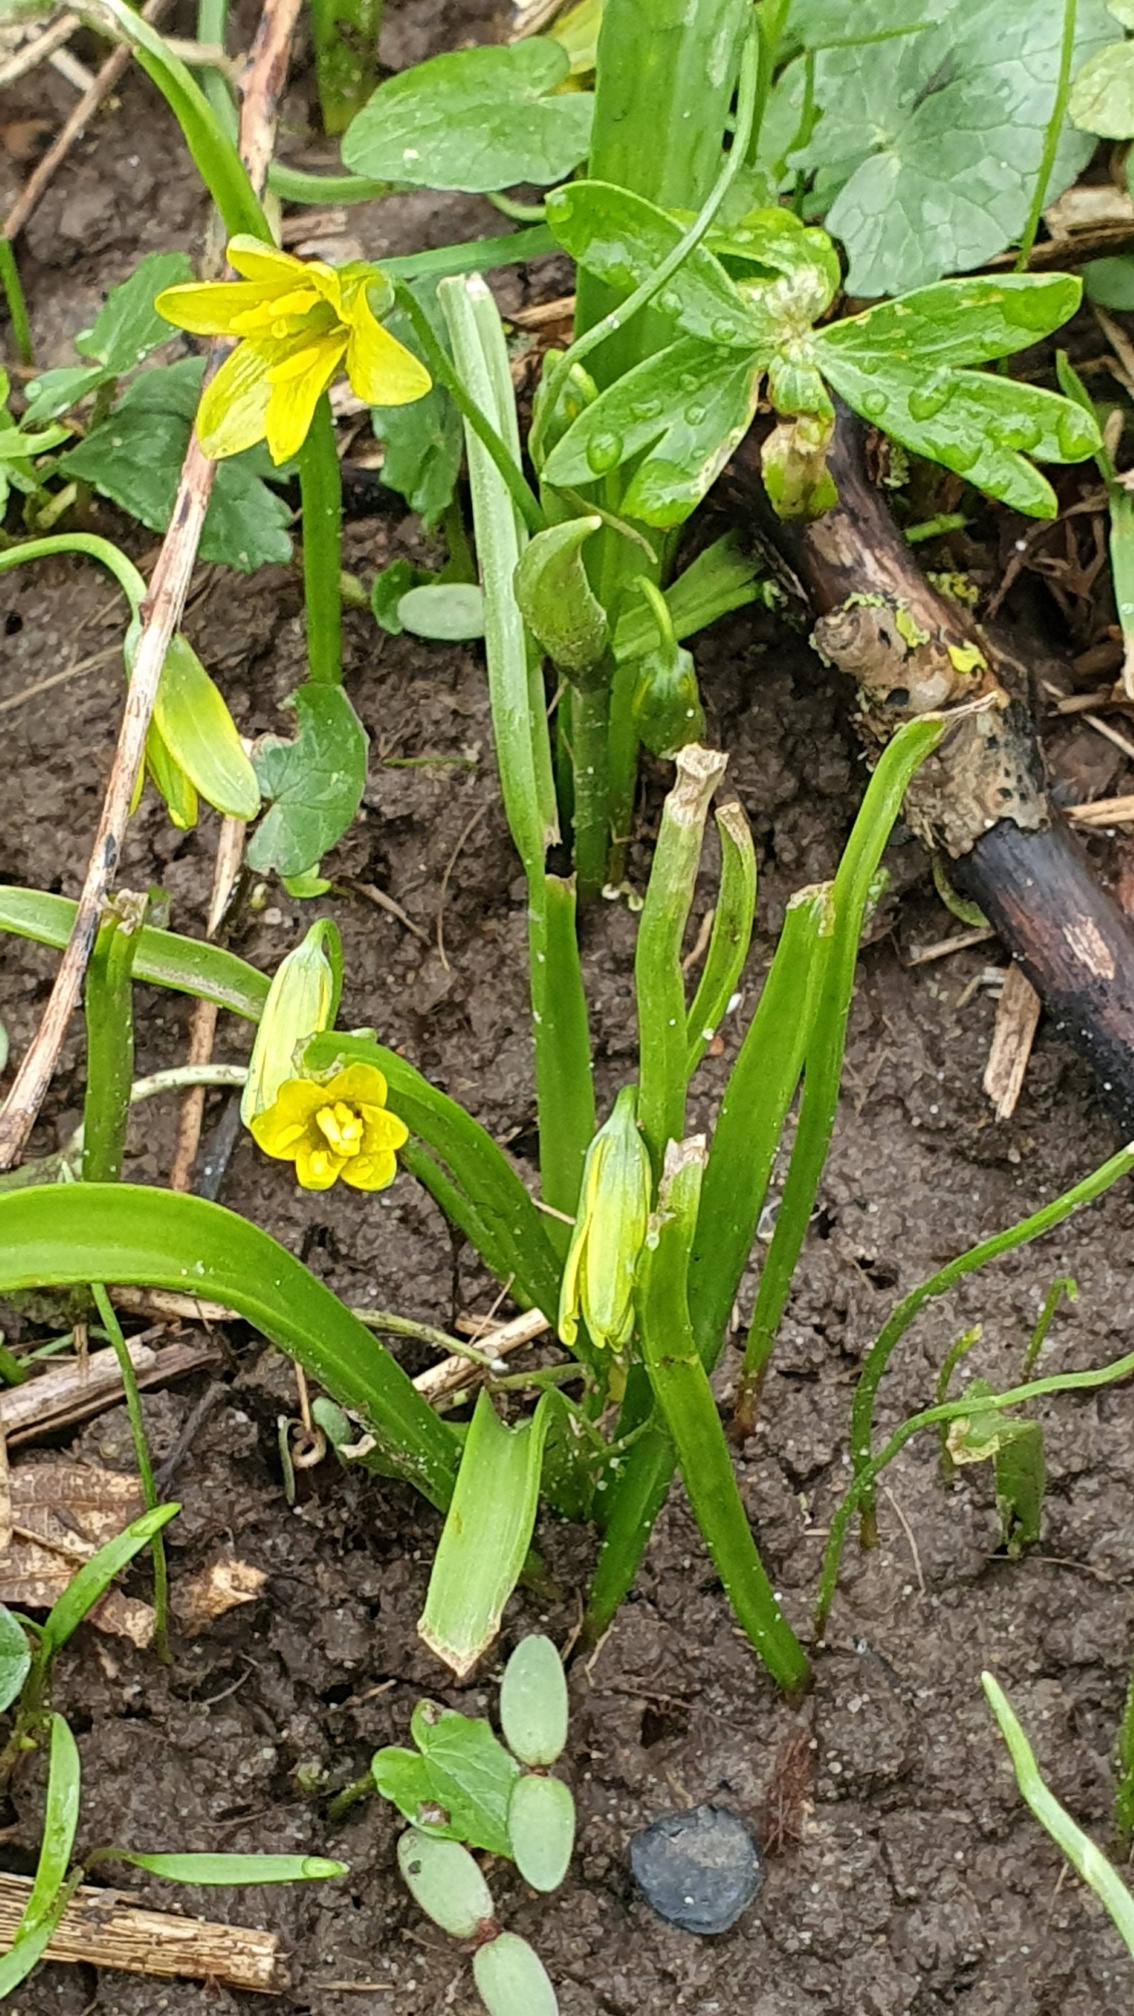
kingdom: Plantae
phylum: Tracheophyta
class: Liliopsida
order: Liliales
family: Liliaceae
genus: Gagea
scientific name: Gagea lutea
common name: Almindelig guldstjerne
